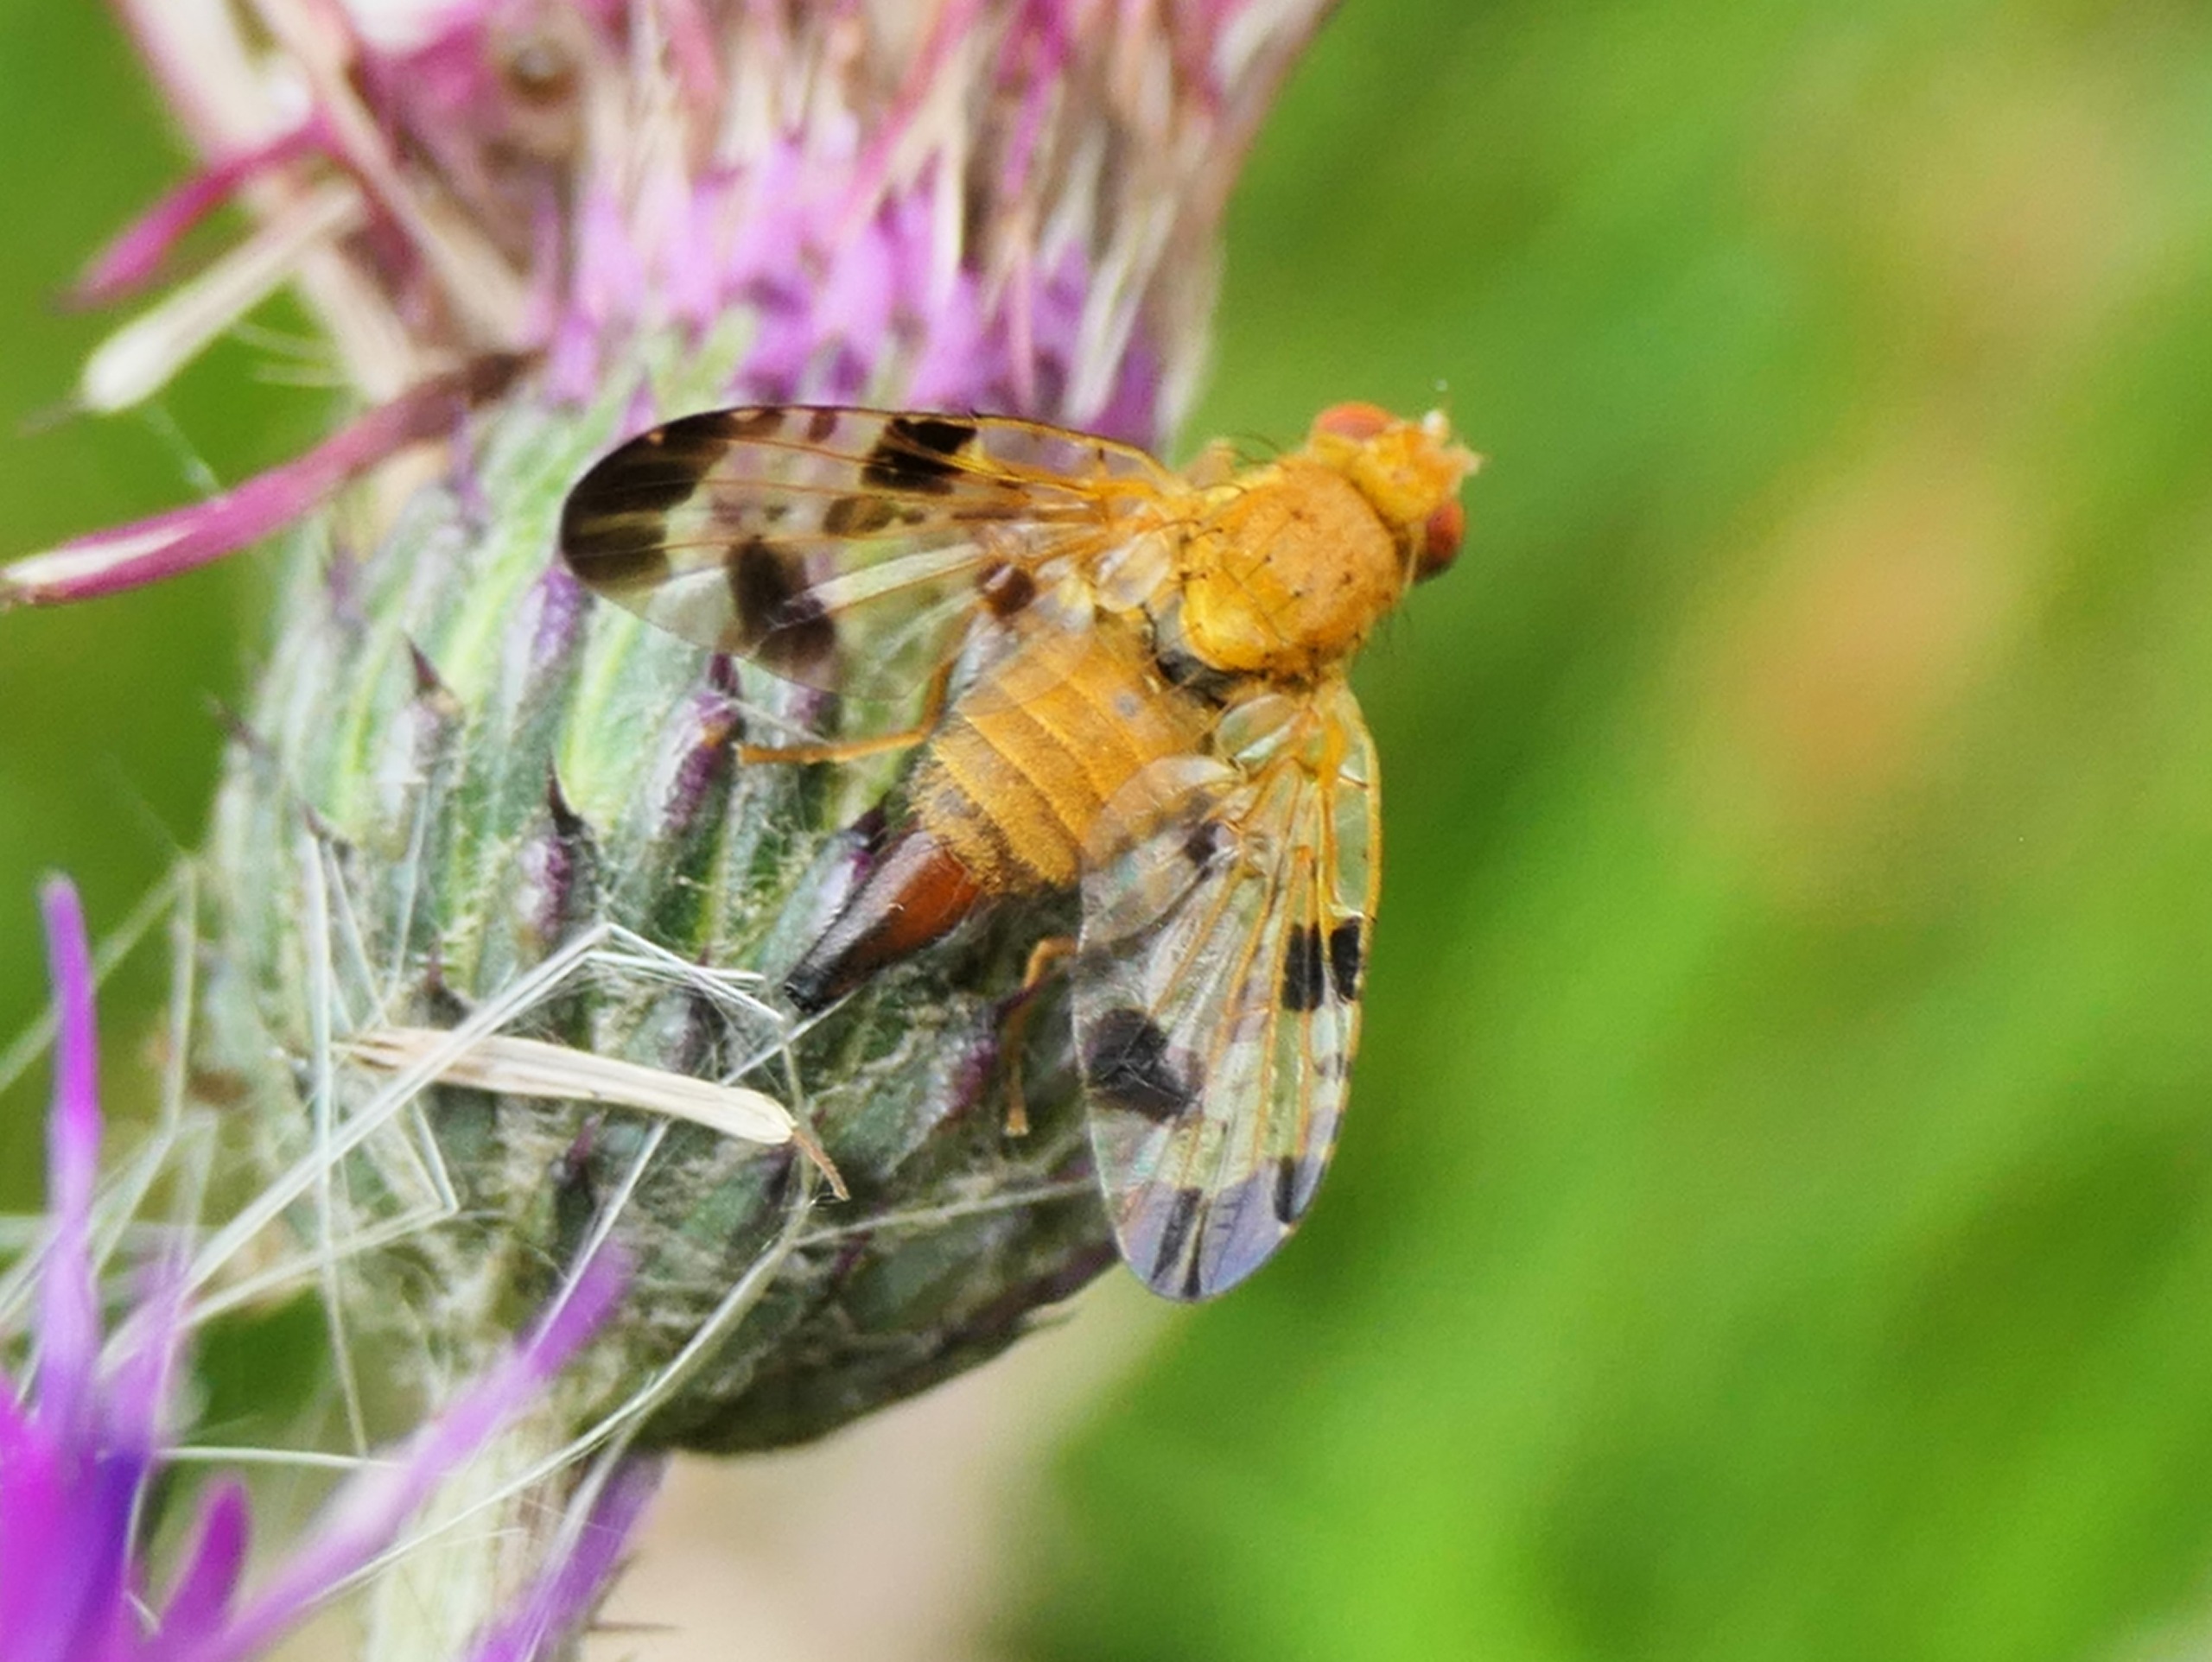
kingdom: Animalia
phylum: Arthropoda
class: Insecta
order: Diptera
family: Tephritidae
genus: Xyphosia
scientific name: Xyphosia miliaria
